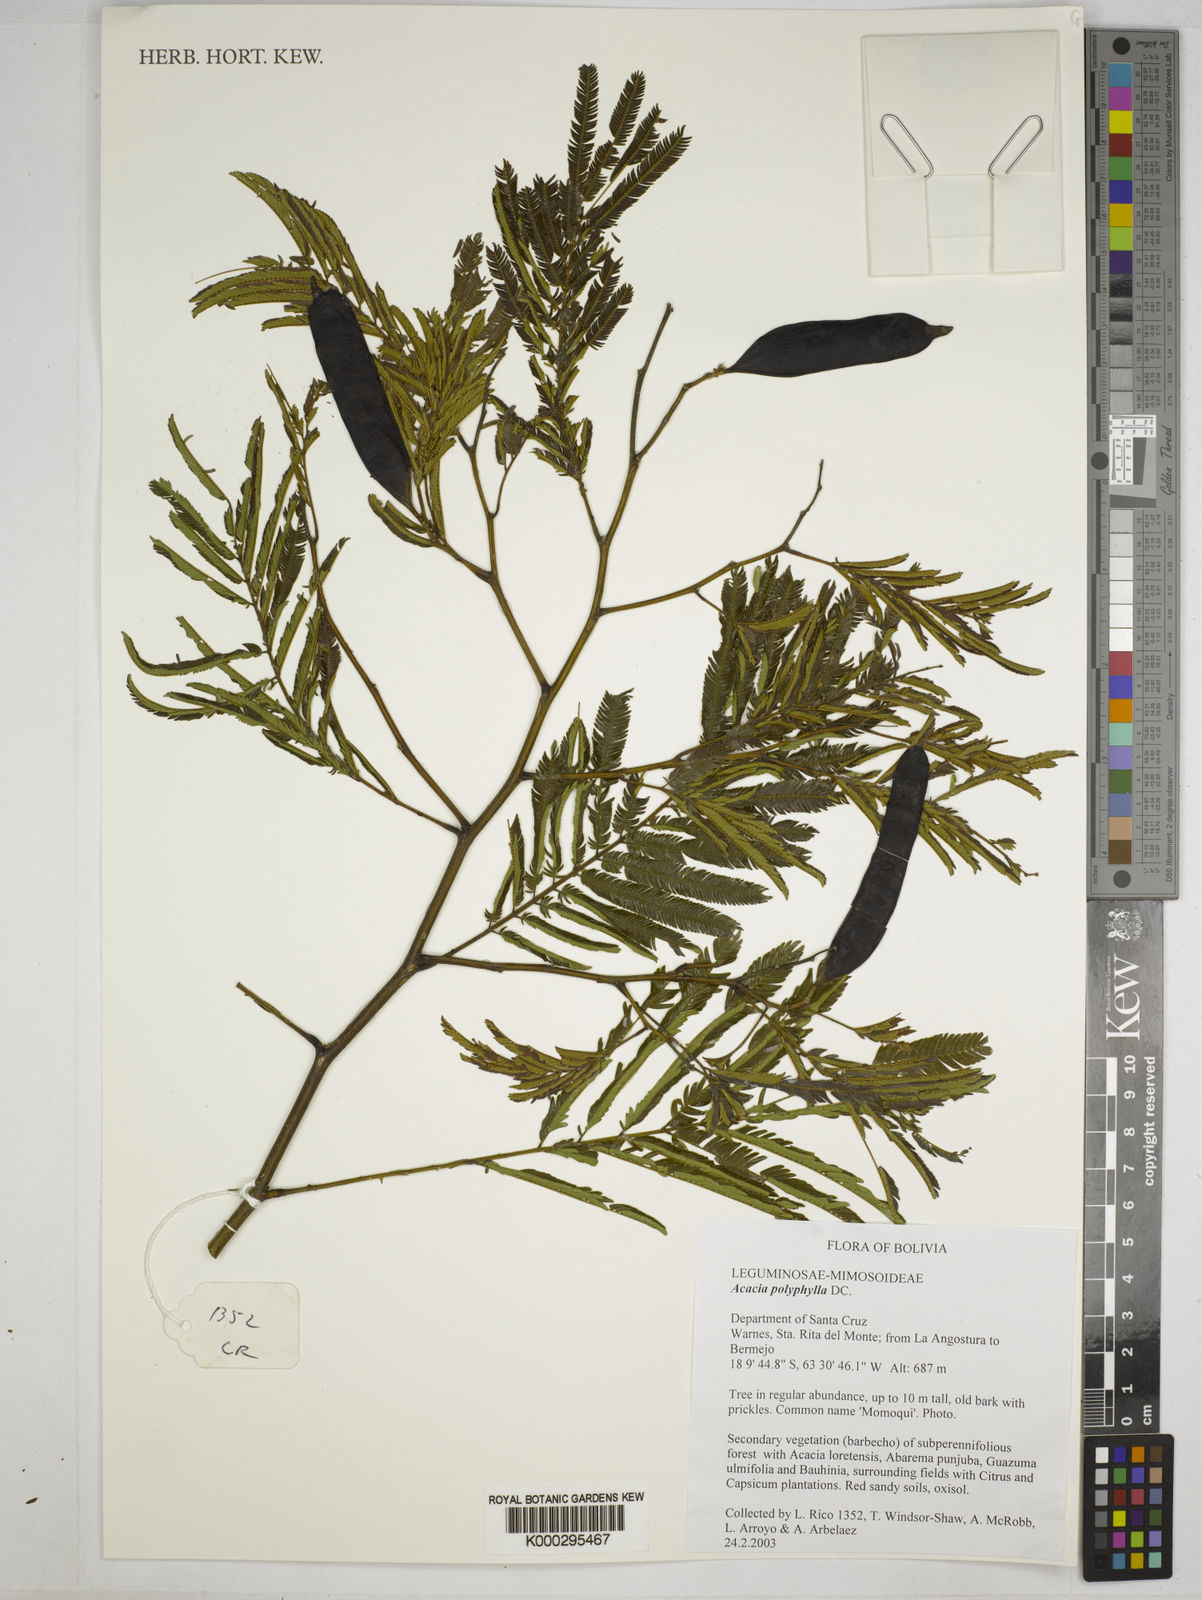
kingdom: Plantae
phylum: Tracheophyta
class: Magnoliopsida
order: Fabales
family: Fabaceae
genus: Senegalia
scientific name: Senegalia polyphylla
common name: White-tamarind
